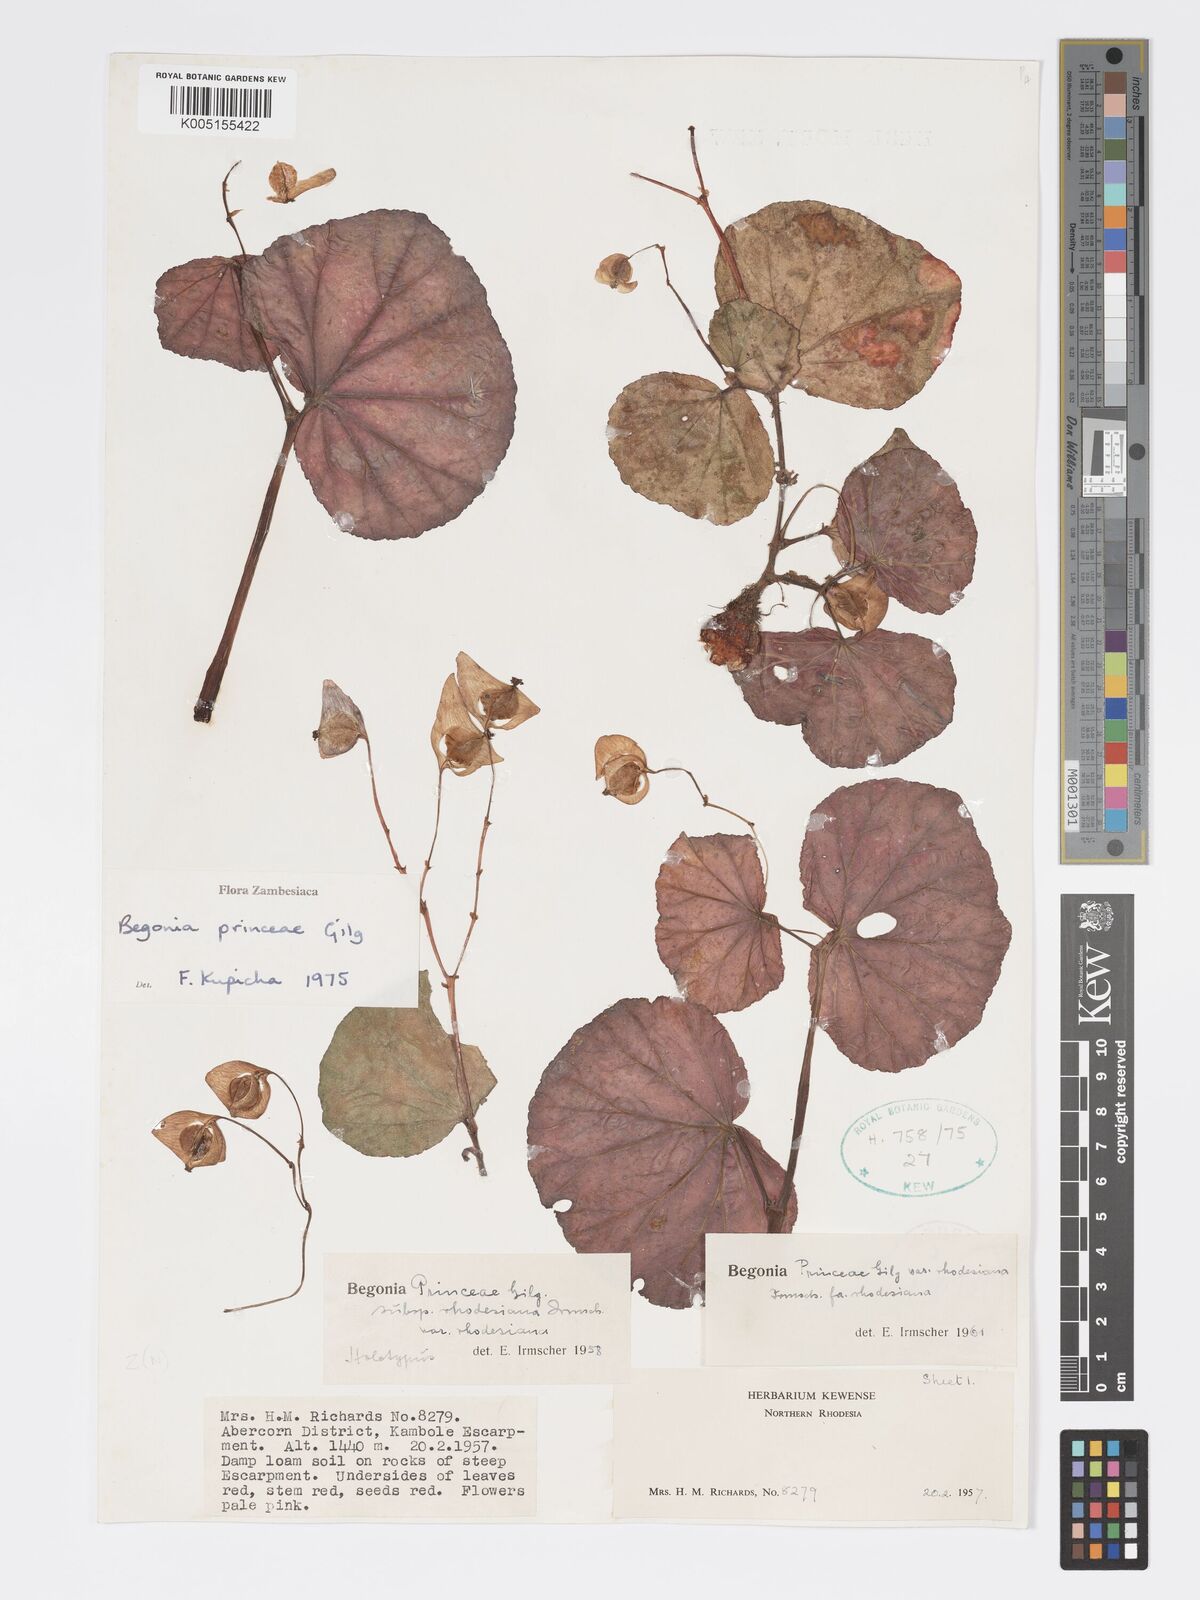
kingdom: Plantae
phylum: Tracheophyta
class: Magnoliopsida
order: Cucurbitales
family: Begoniaceae
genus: Begonia
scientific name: Begonia princeae
